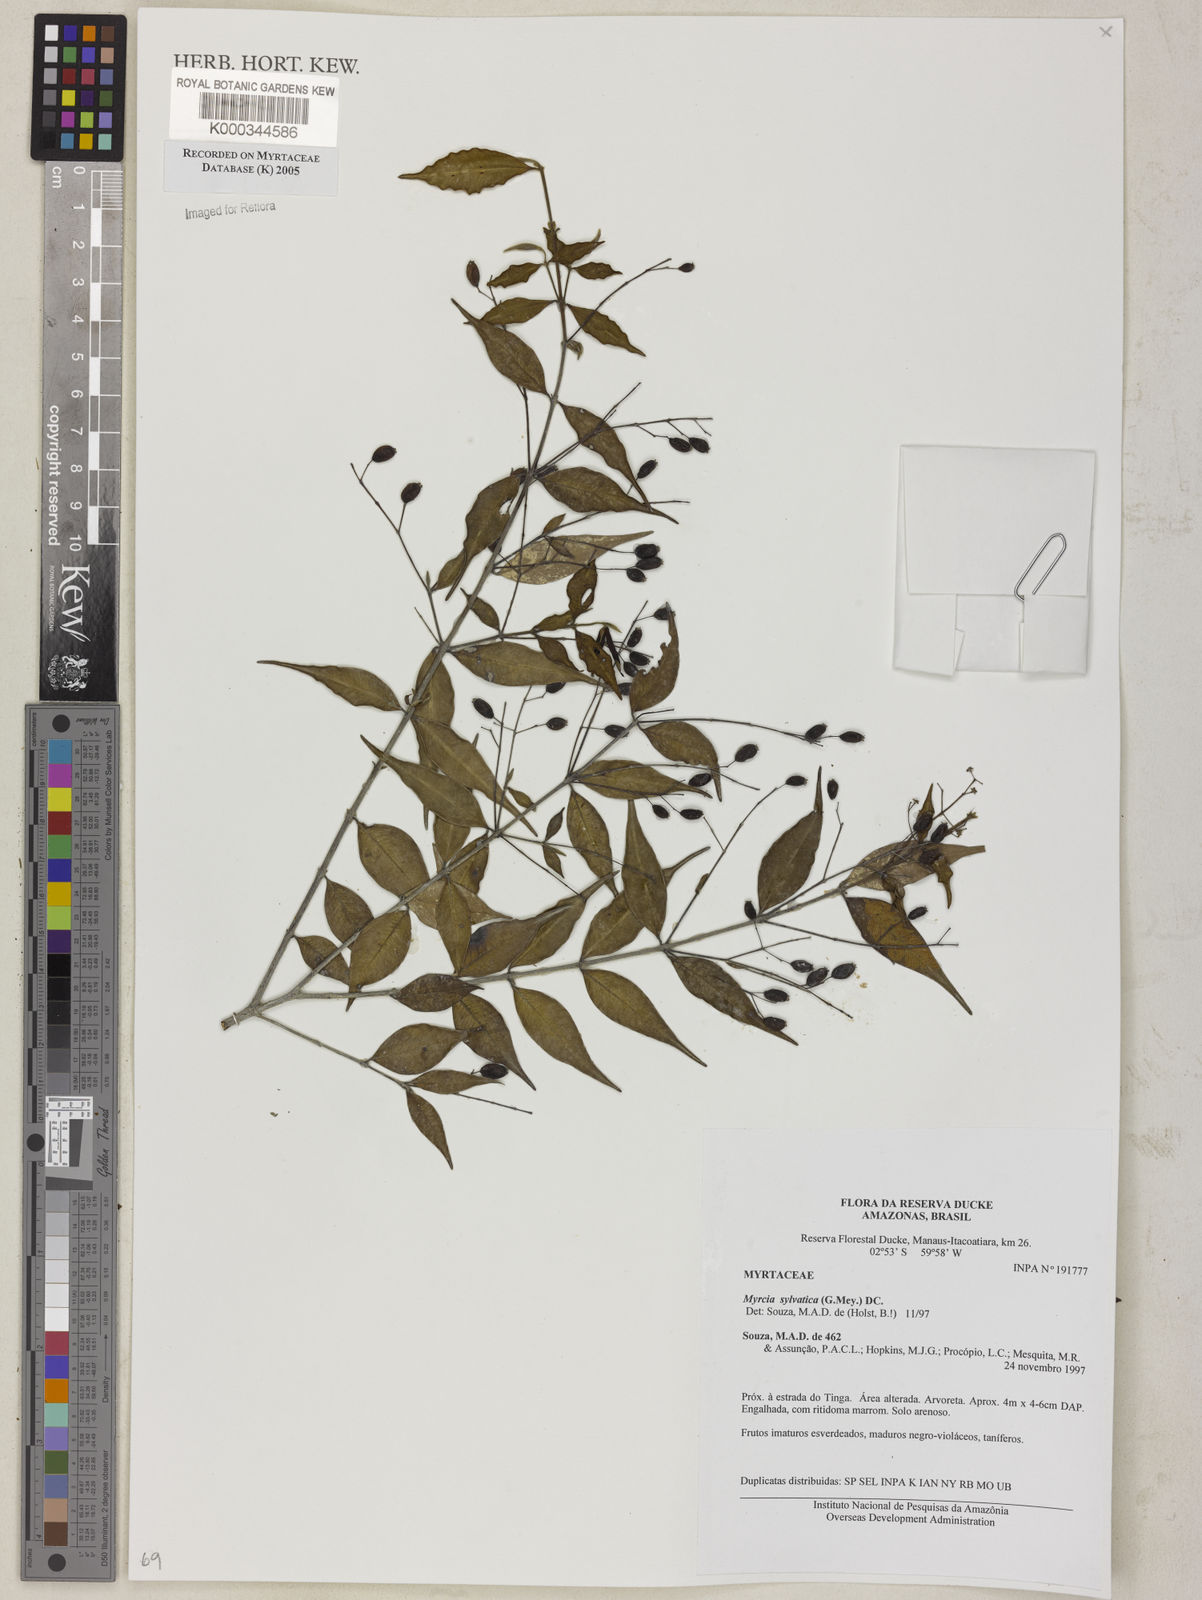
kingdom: Plantae
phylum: Tracheophyta
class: Magnoliopsida
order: Myrtales
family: Myrtaceae
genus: Myrcia
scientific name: Myrcia sylvatica
